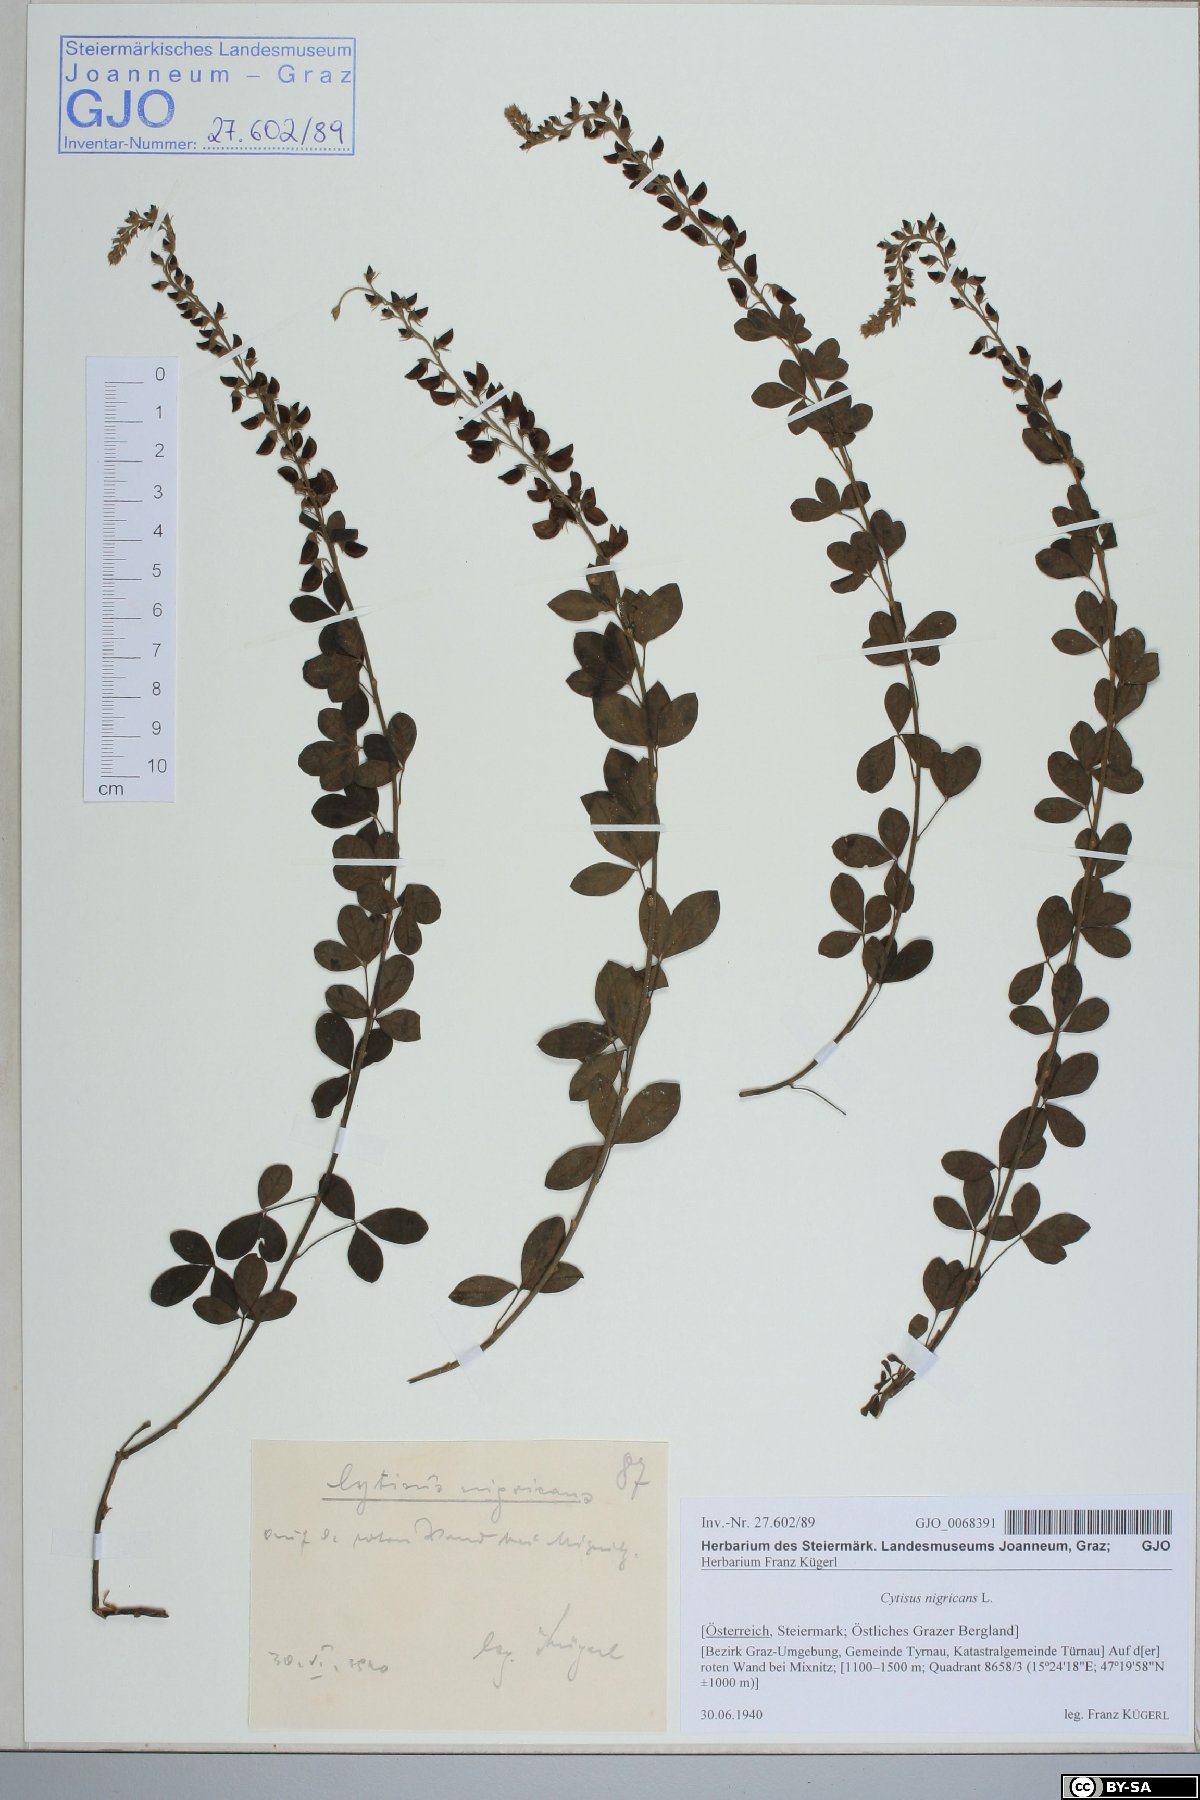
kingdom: Plantae
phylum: Tracheophyta
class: Magnoliopsida
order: Fabales
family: Fabaceae
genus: Cytisus
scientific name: Cytisus nigricans
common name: Black broom
